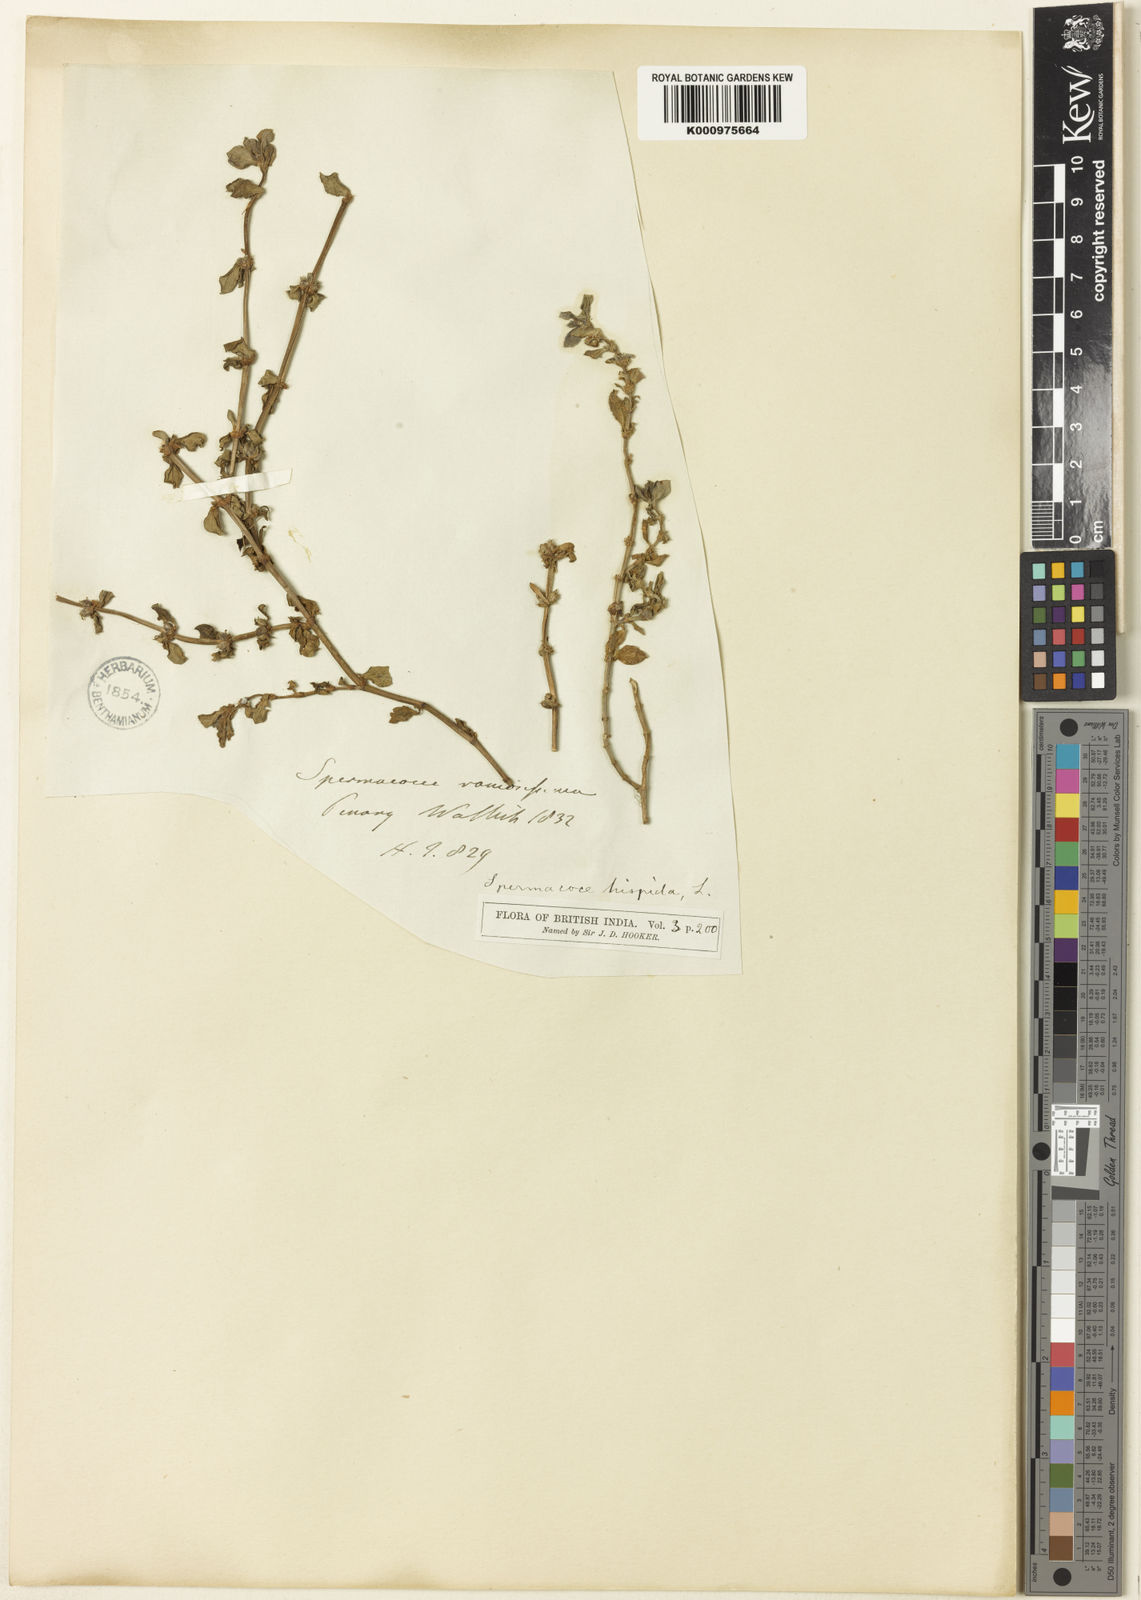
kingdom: Plantae
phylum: Tracheophyta
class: Magnoliopsida
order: Gentianales
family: Rubiaceae
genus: Spermacoce
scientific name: Spermacoce articularis
